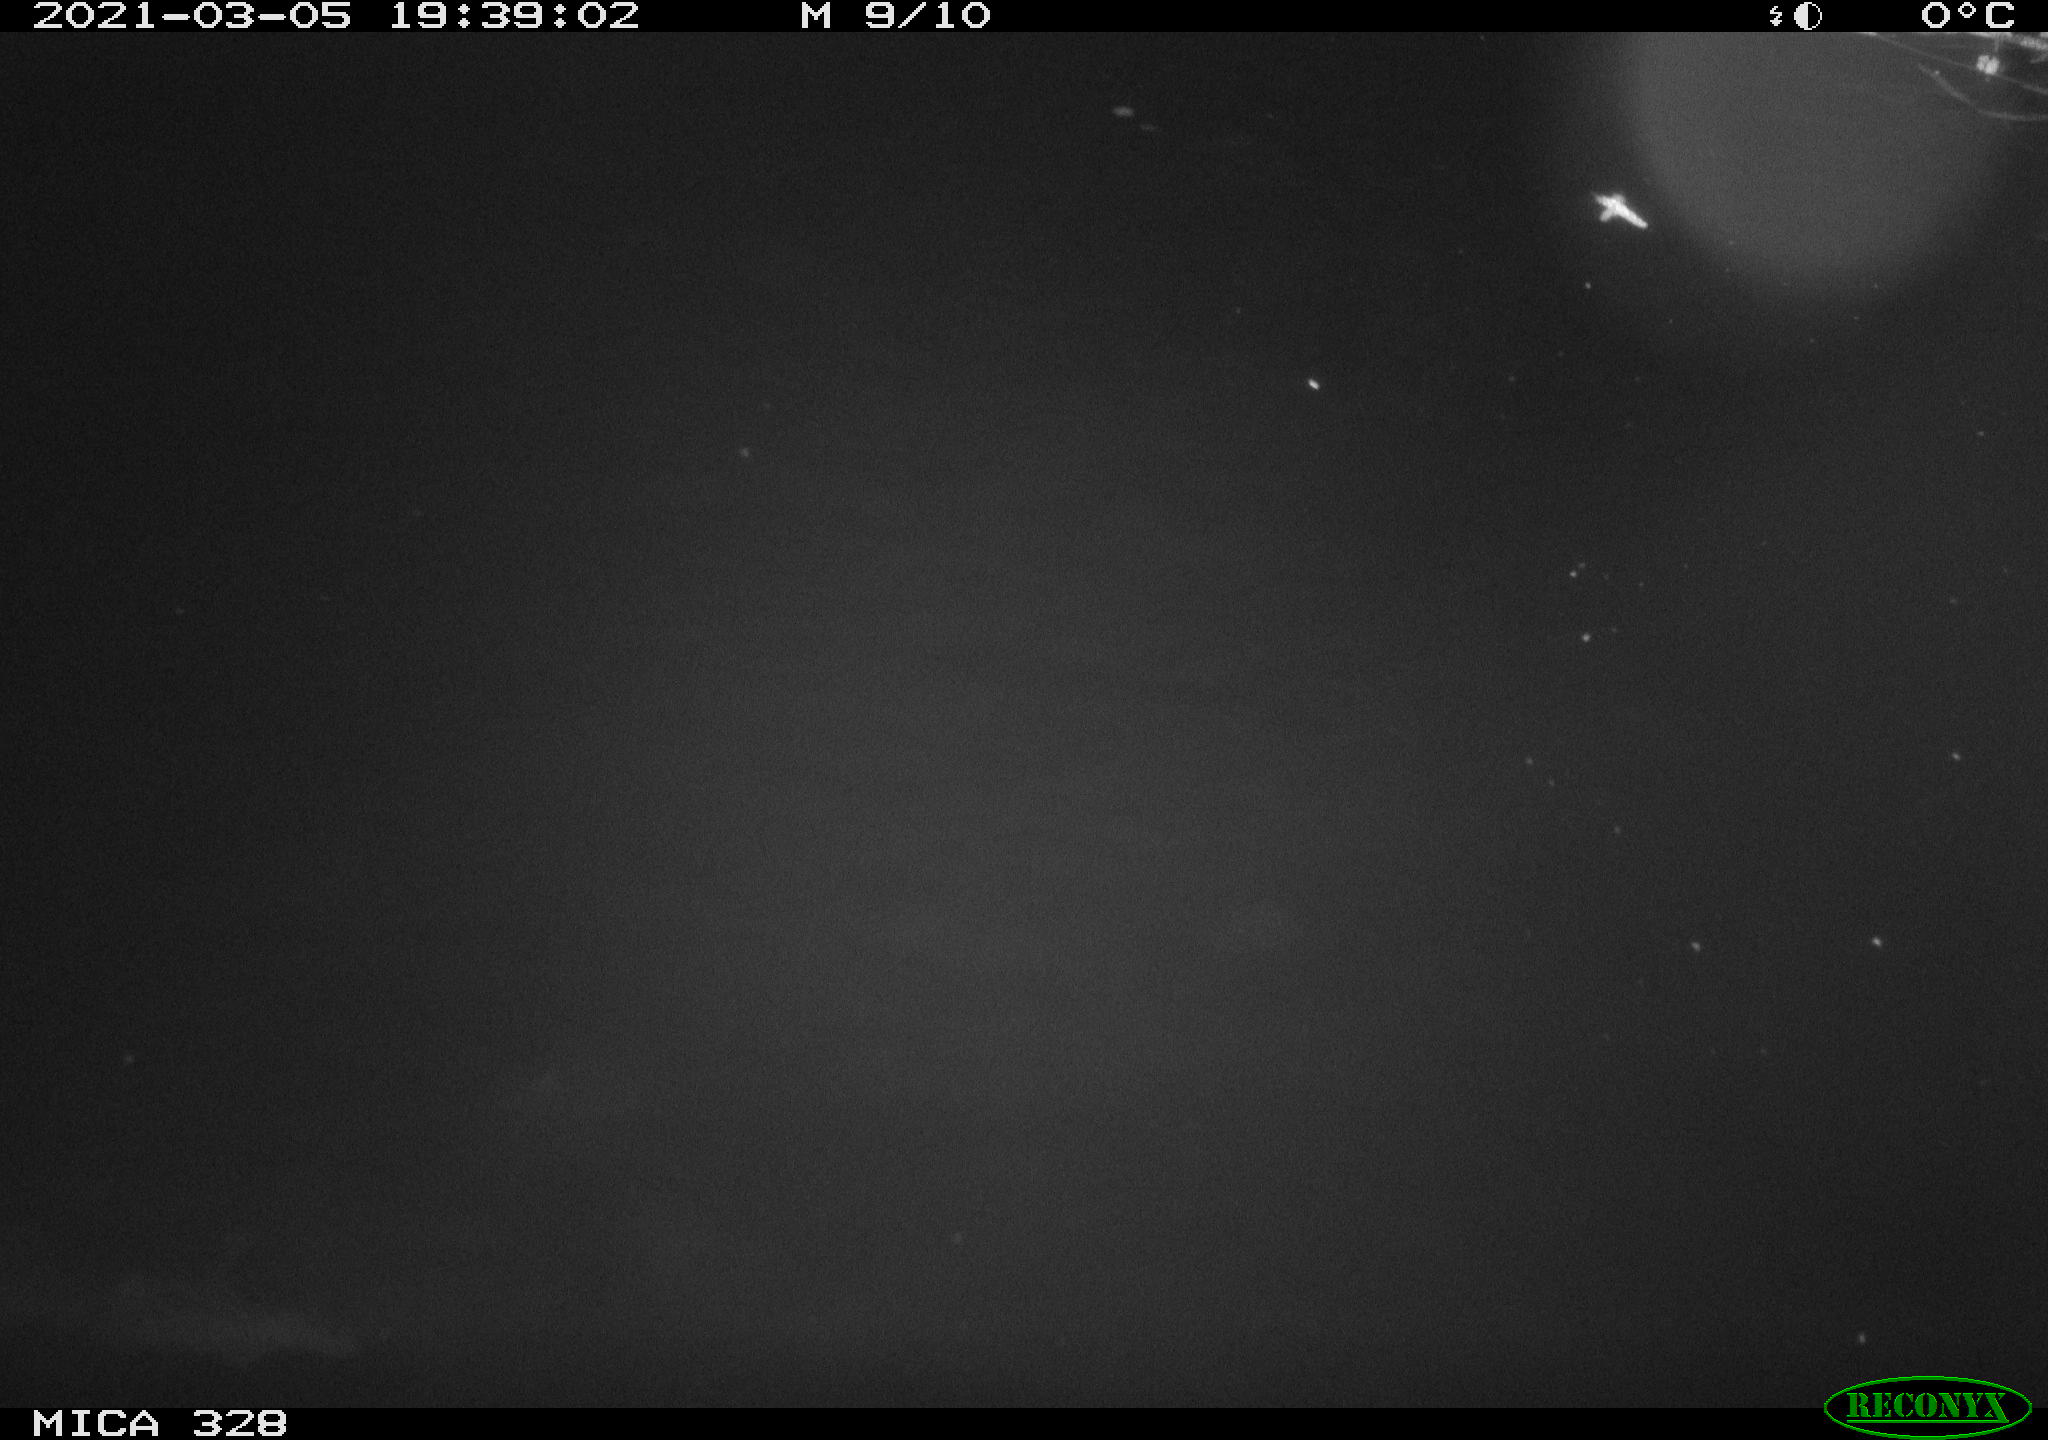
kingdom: Animalia
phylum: Chordata
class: Mammalia
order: Rodentia
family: Cricetidae
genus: Ondatra
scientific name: Ondatra zibethicus
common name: Muskrat
